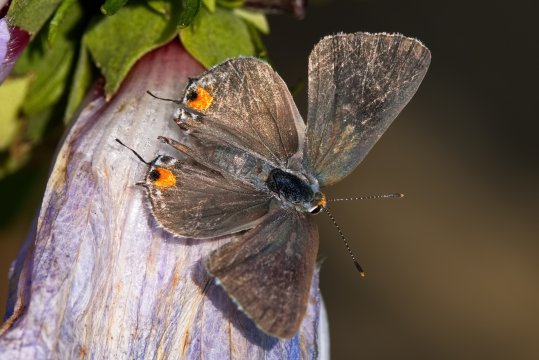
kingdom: Animalia
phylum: Arthropoda
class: Insecta
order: Lepidoptera
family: Lycaenidae
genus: Strymon
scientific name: Strymon melinus
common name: Gray Hairstreak
